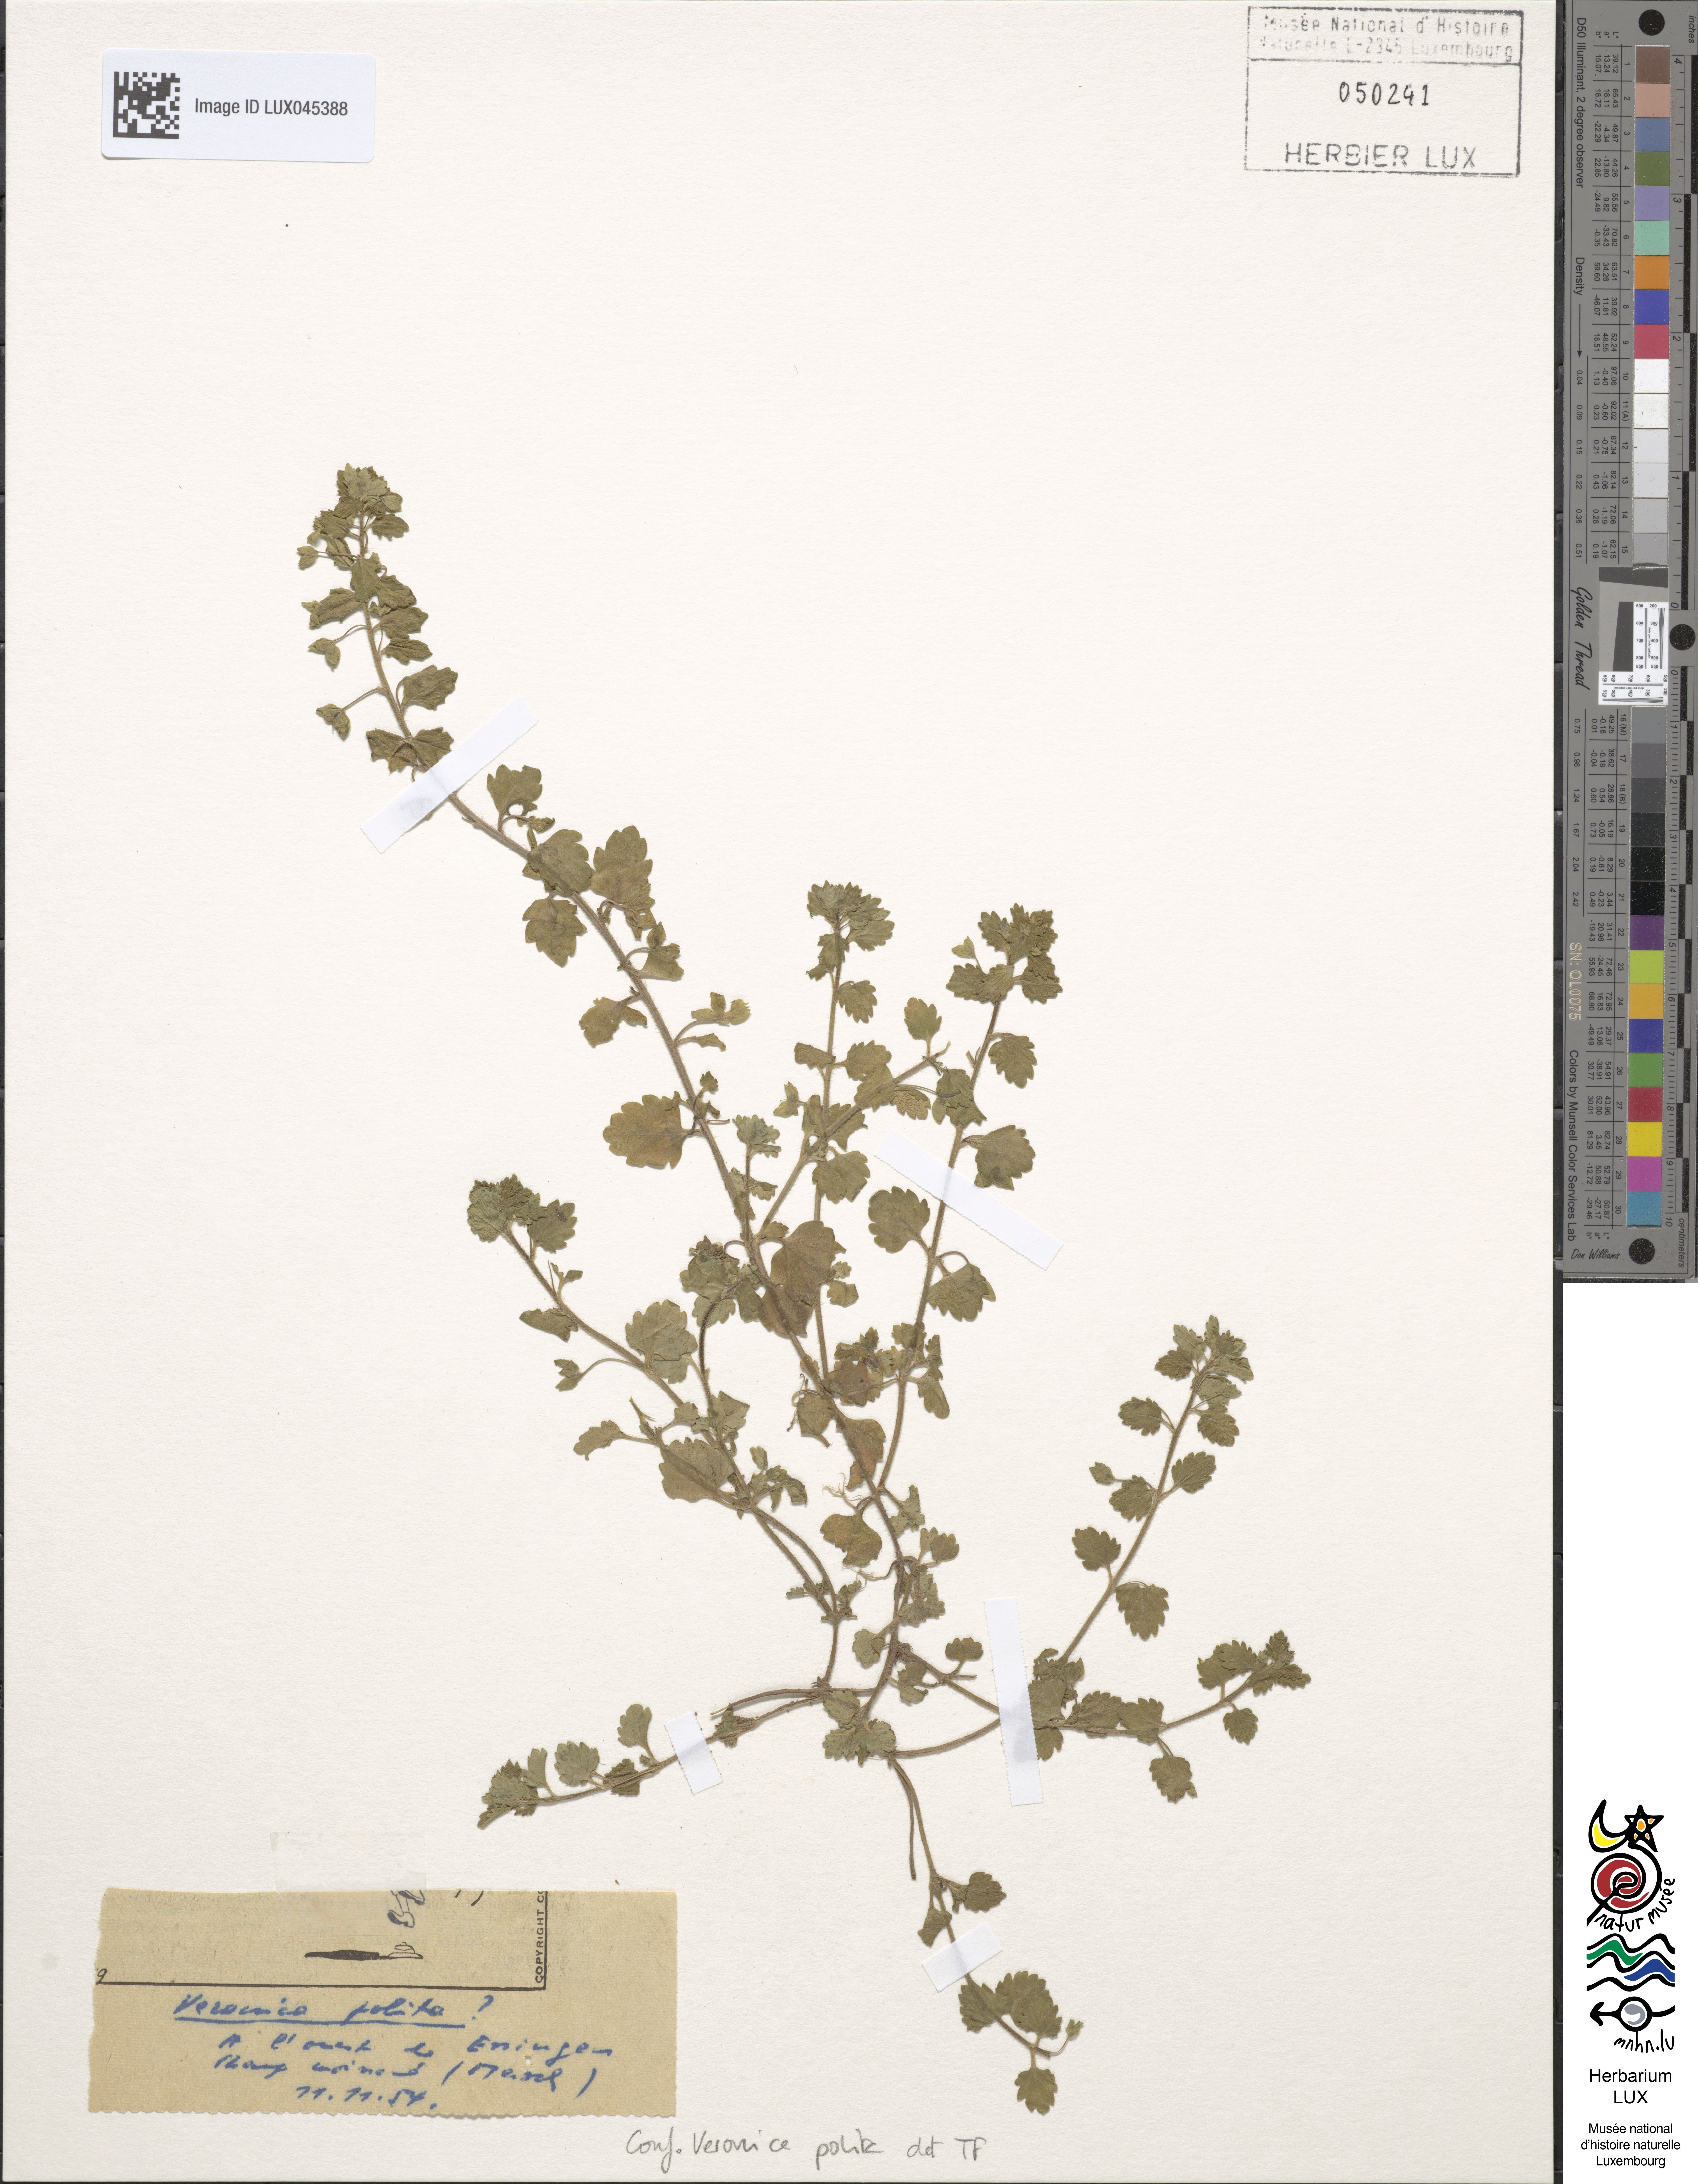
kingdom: Plantae
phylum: Tracheophyta
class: Magnoliopsida
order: Lamiales
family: Plantaginaceae
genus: Veronica
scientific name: Veronica polita
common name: Grey field-speedwell
